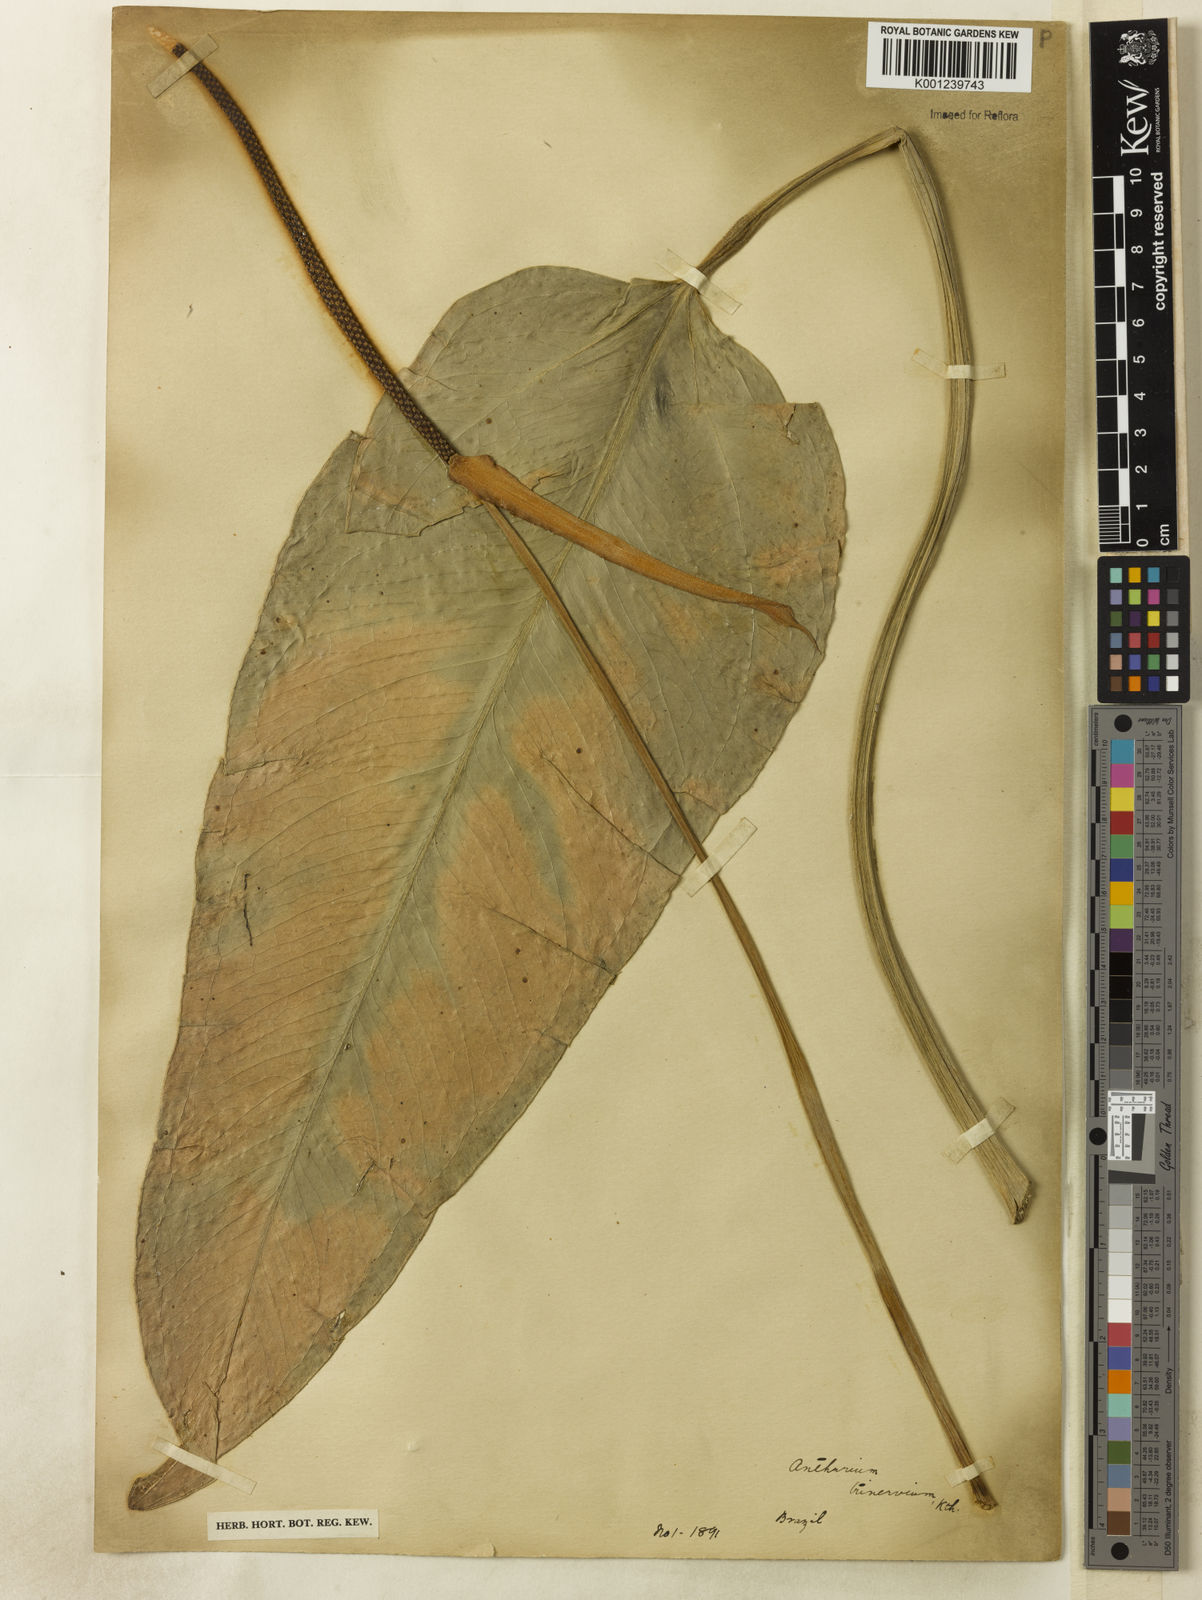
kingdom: Plantae
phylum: Tracheophyta
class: Liliopsida
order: Alismatales
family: Araceae
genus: Anthurium
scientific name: Anthurium trinervium
